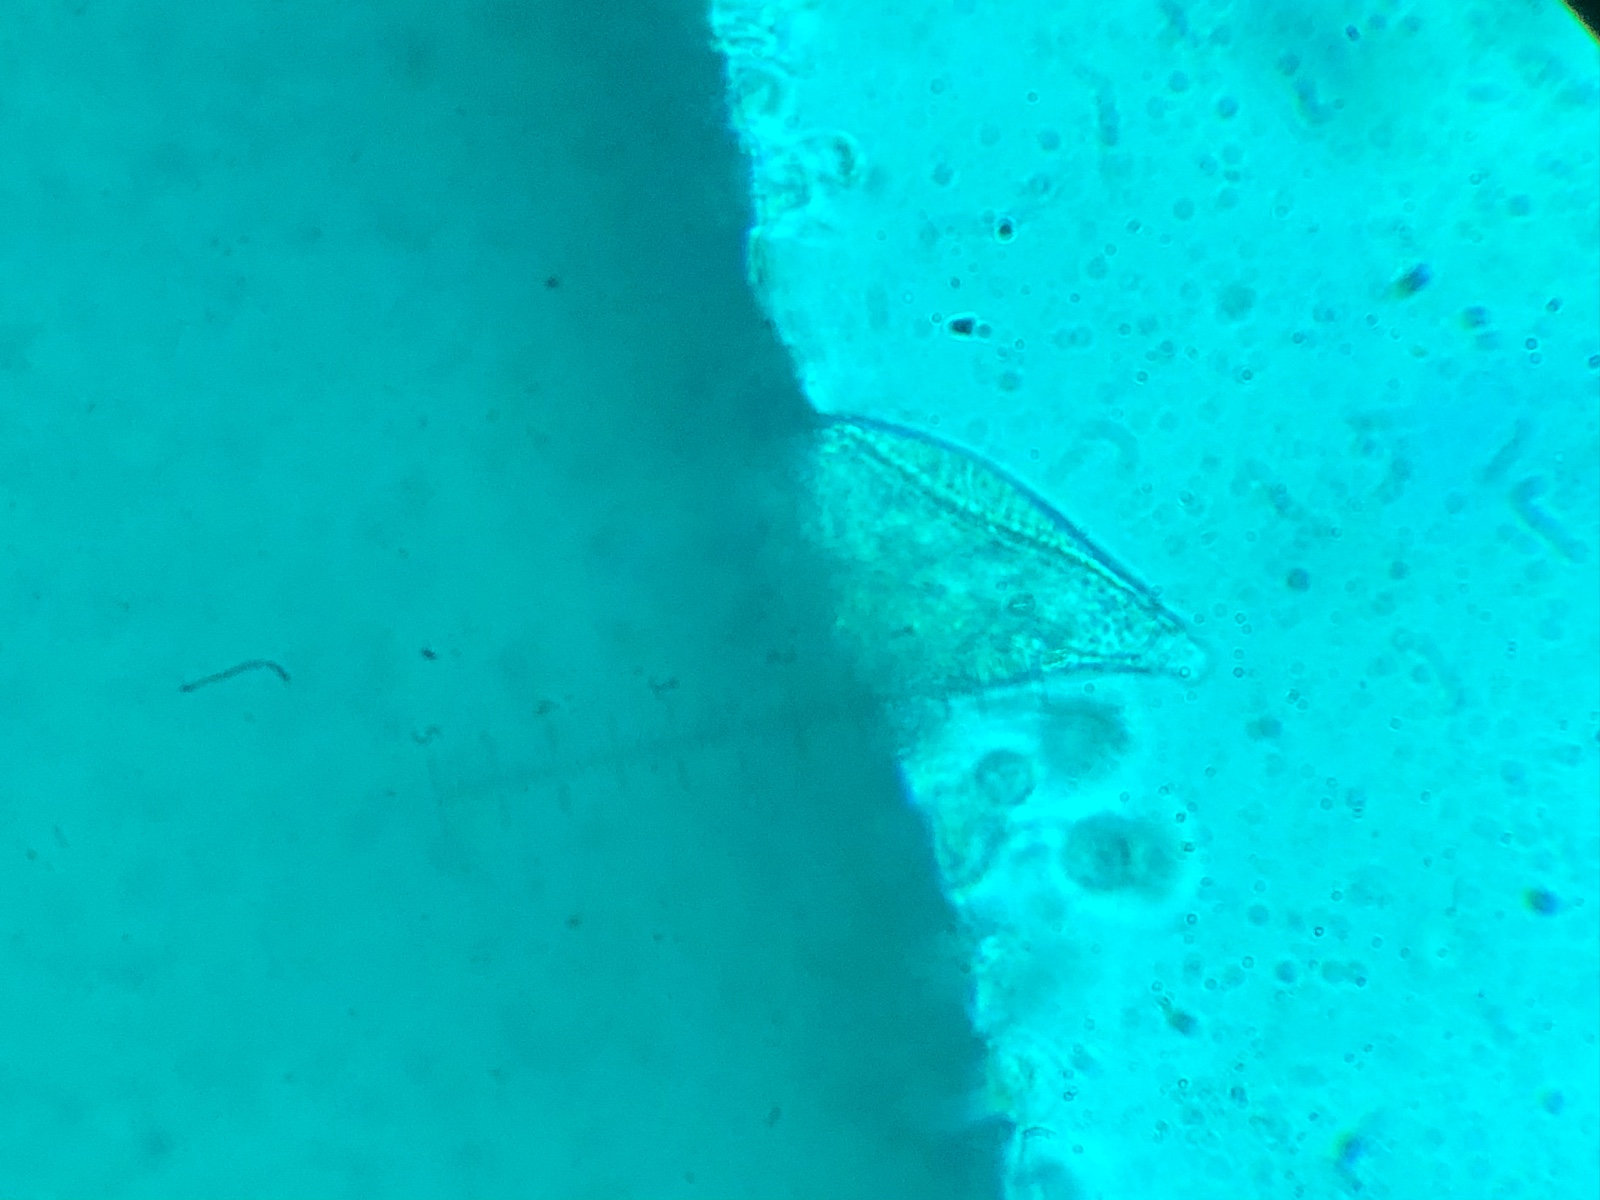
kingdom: Fungi
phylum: Basidiomycota
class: Agaricomycetes
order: Agaricales
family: Tricholomataceae
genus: Mycenella
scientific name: Mycenella trachyspora
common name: rødprikket dughat
